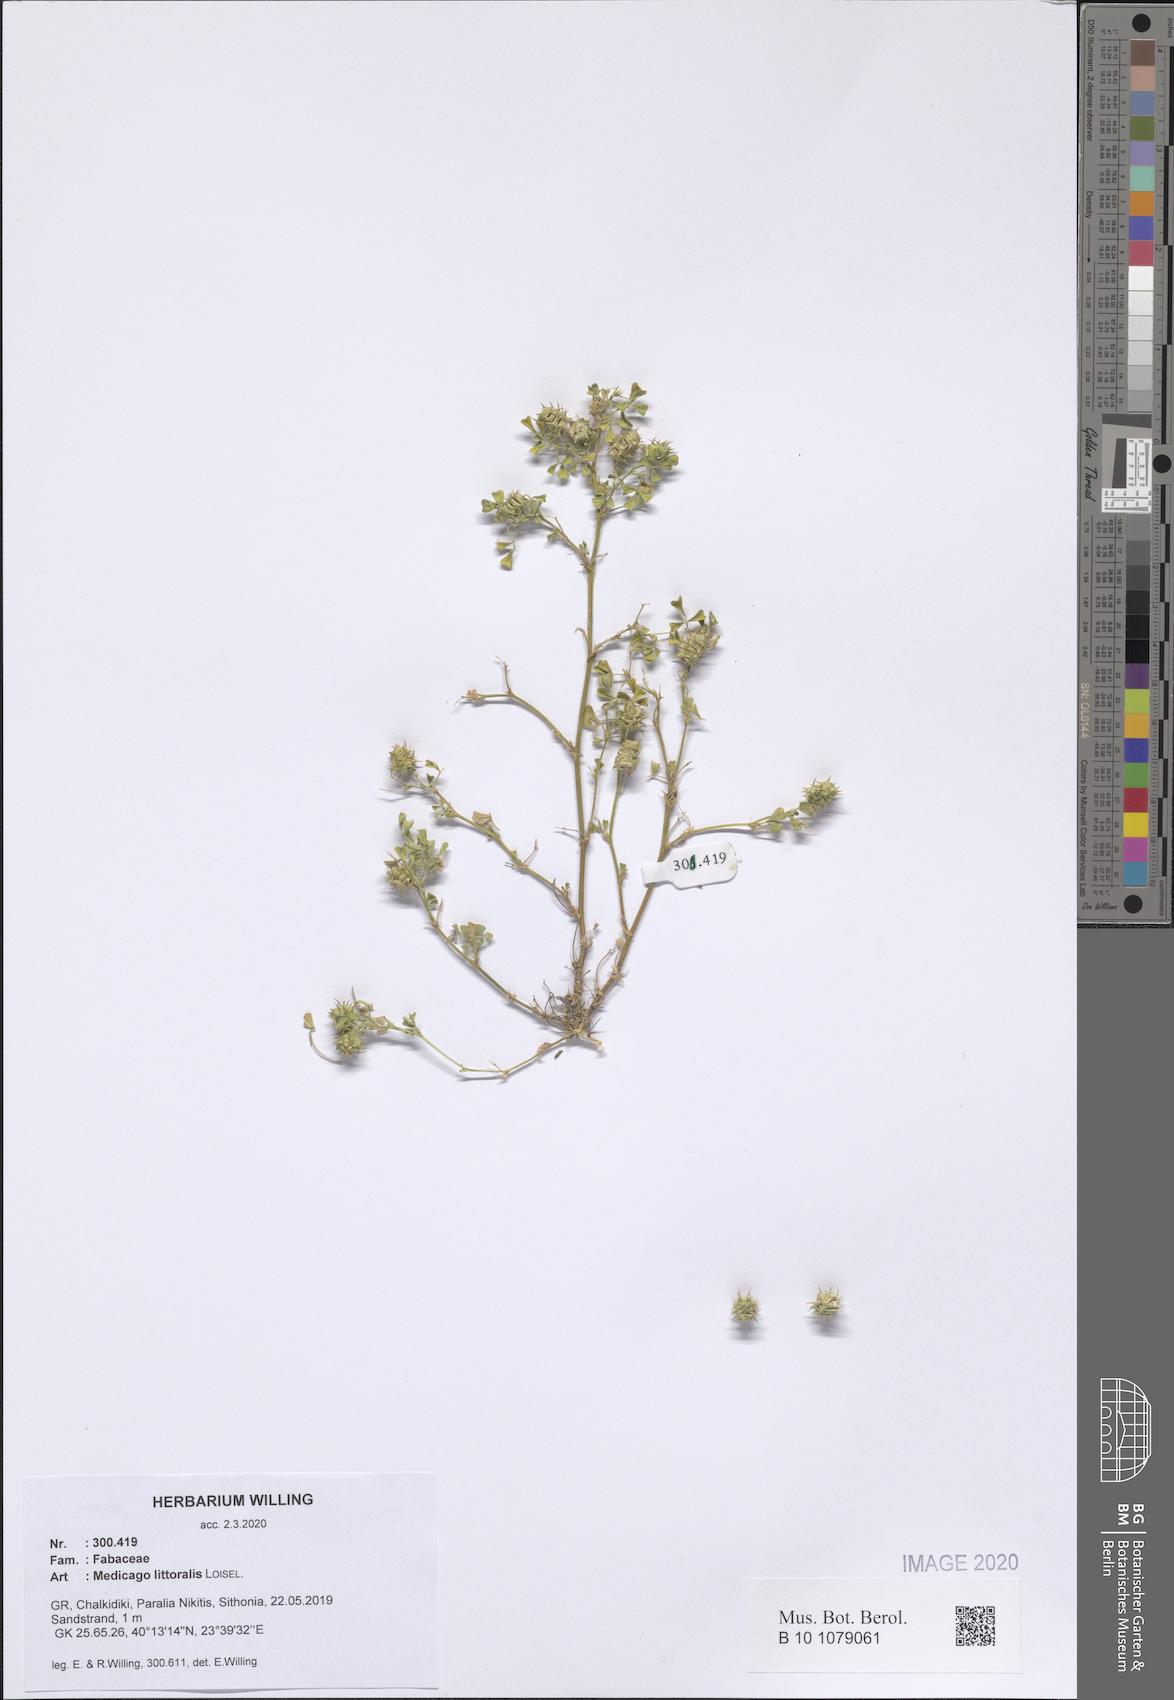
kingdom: Plantae
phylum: Tracheophyta
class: Magnoliopsida
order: Fabales
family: Fabaceae
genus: Medicago
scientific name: Medicago littoralis
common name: Shore medick
